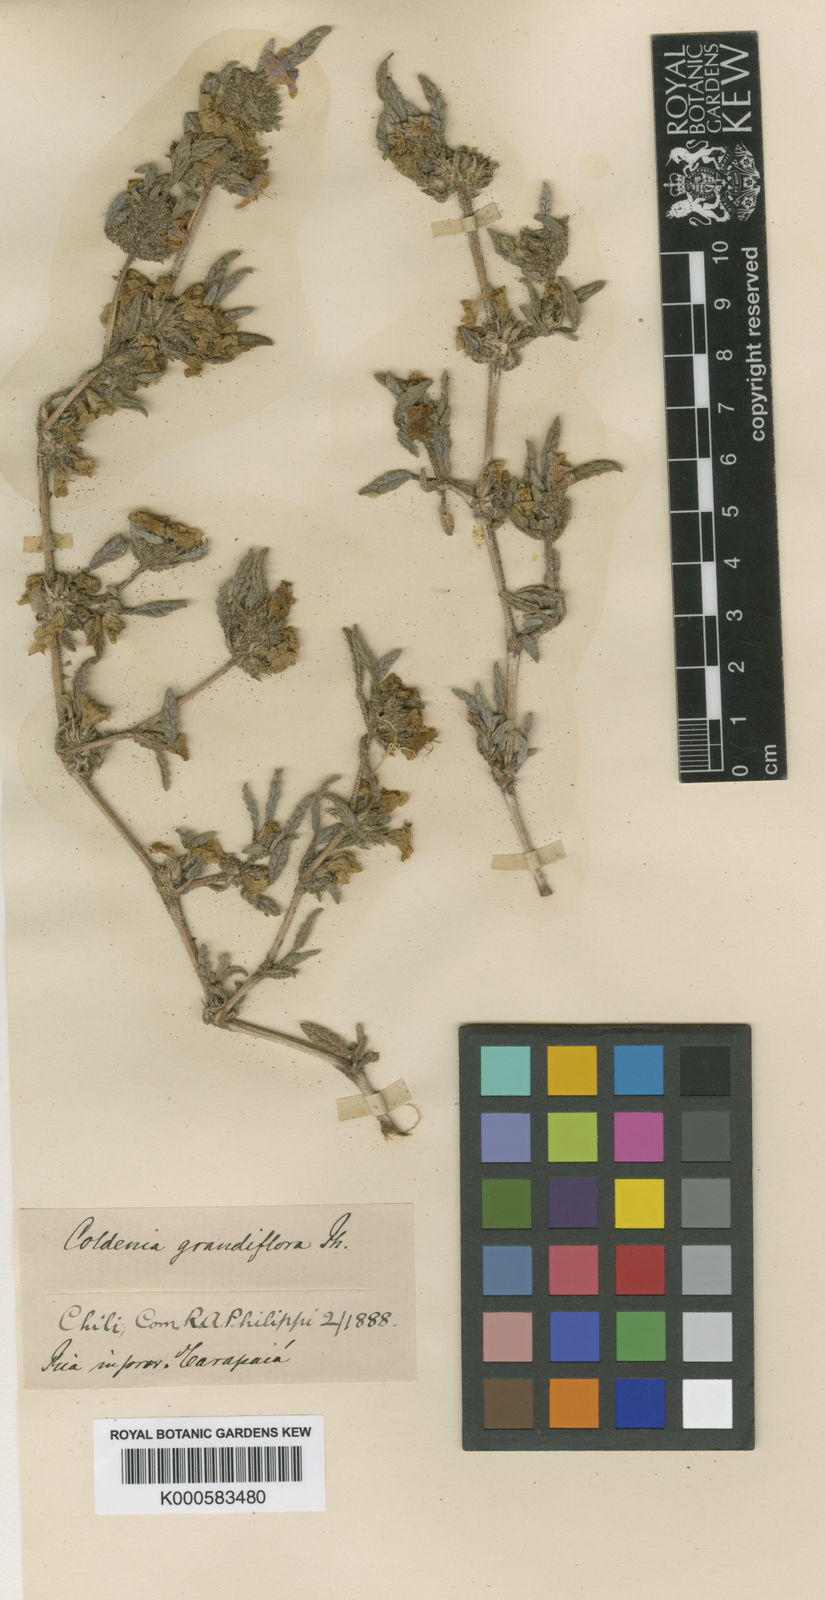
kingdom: Plantae
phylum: Tracheophyta
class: Magnoliopsida
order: Boraginales
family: Ehretiaceae
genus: Tiquilia
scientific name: Tiquilia grandiflora
